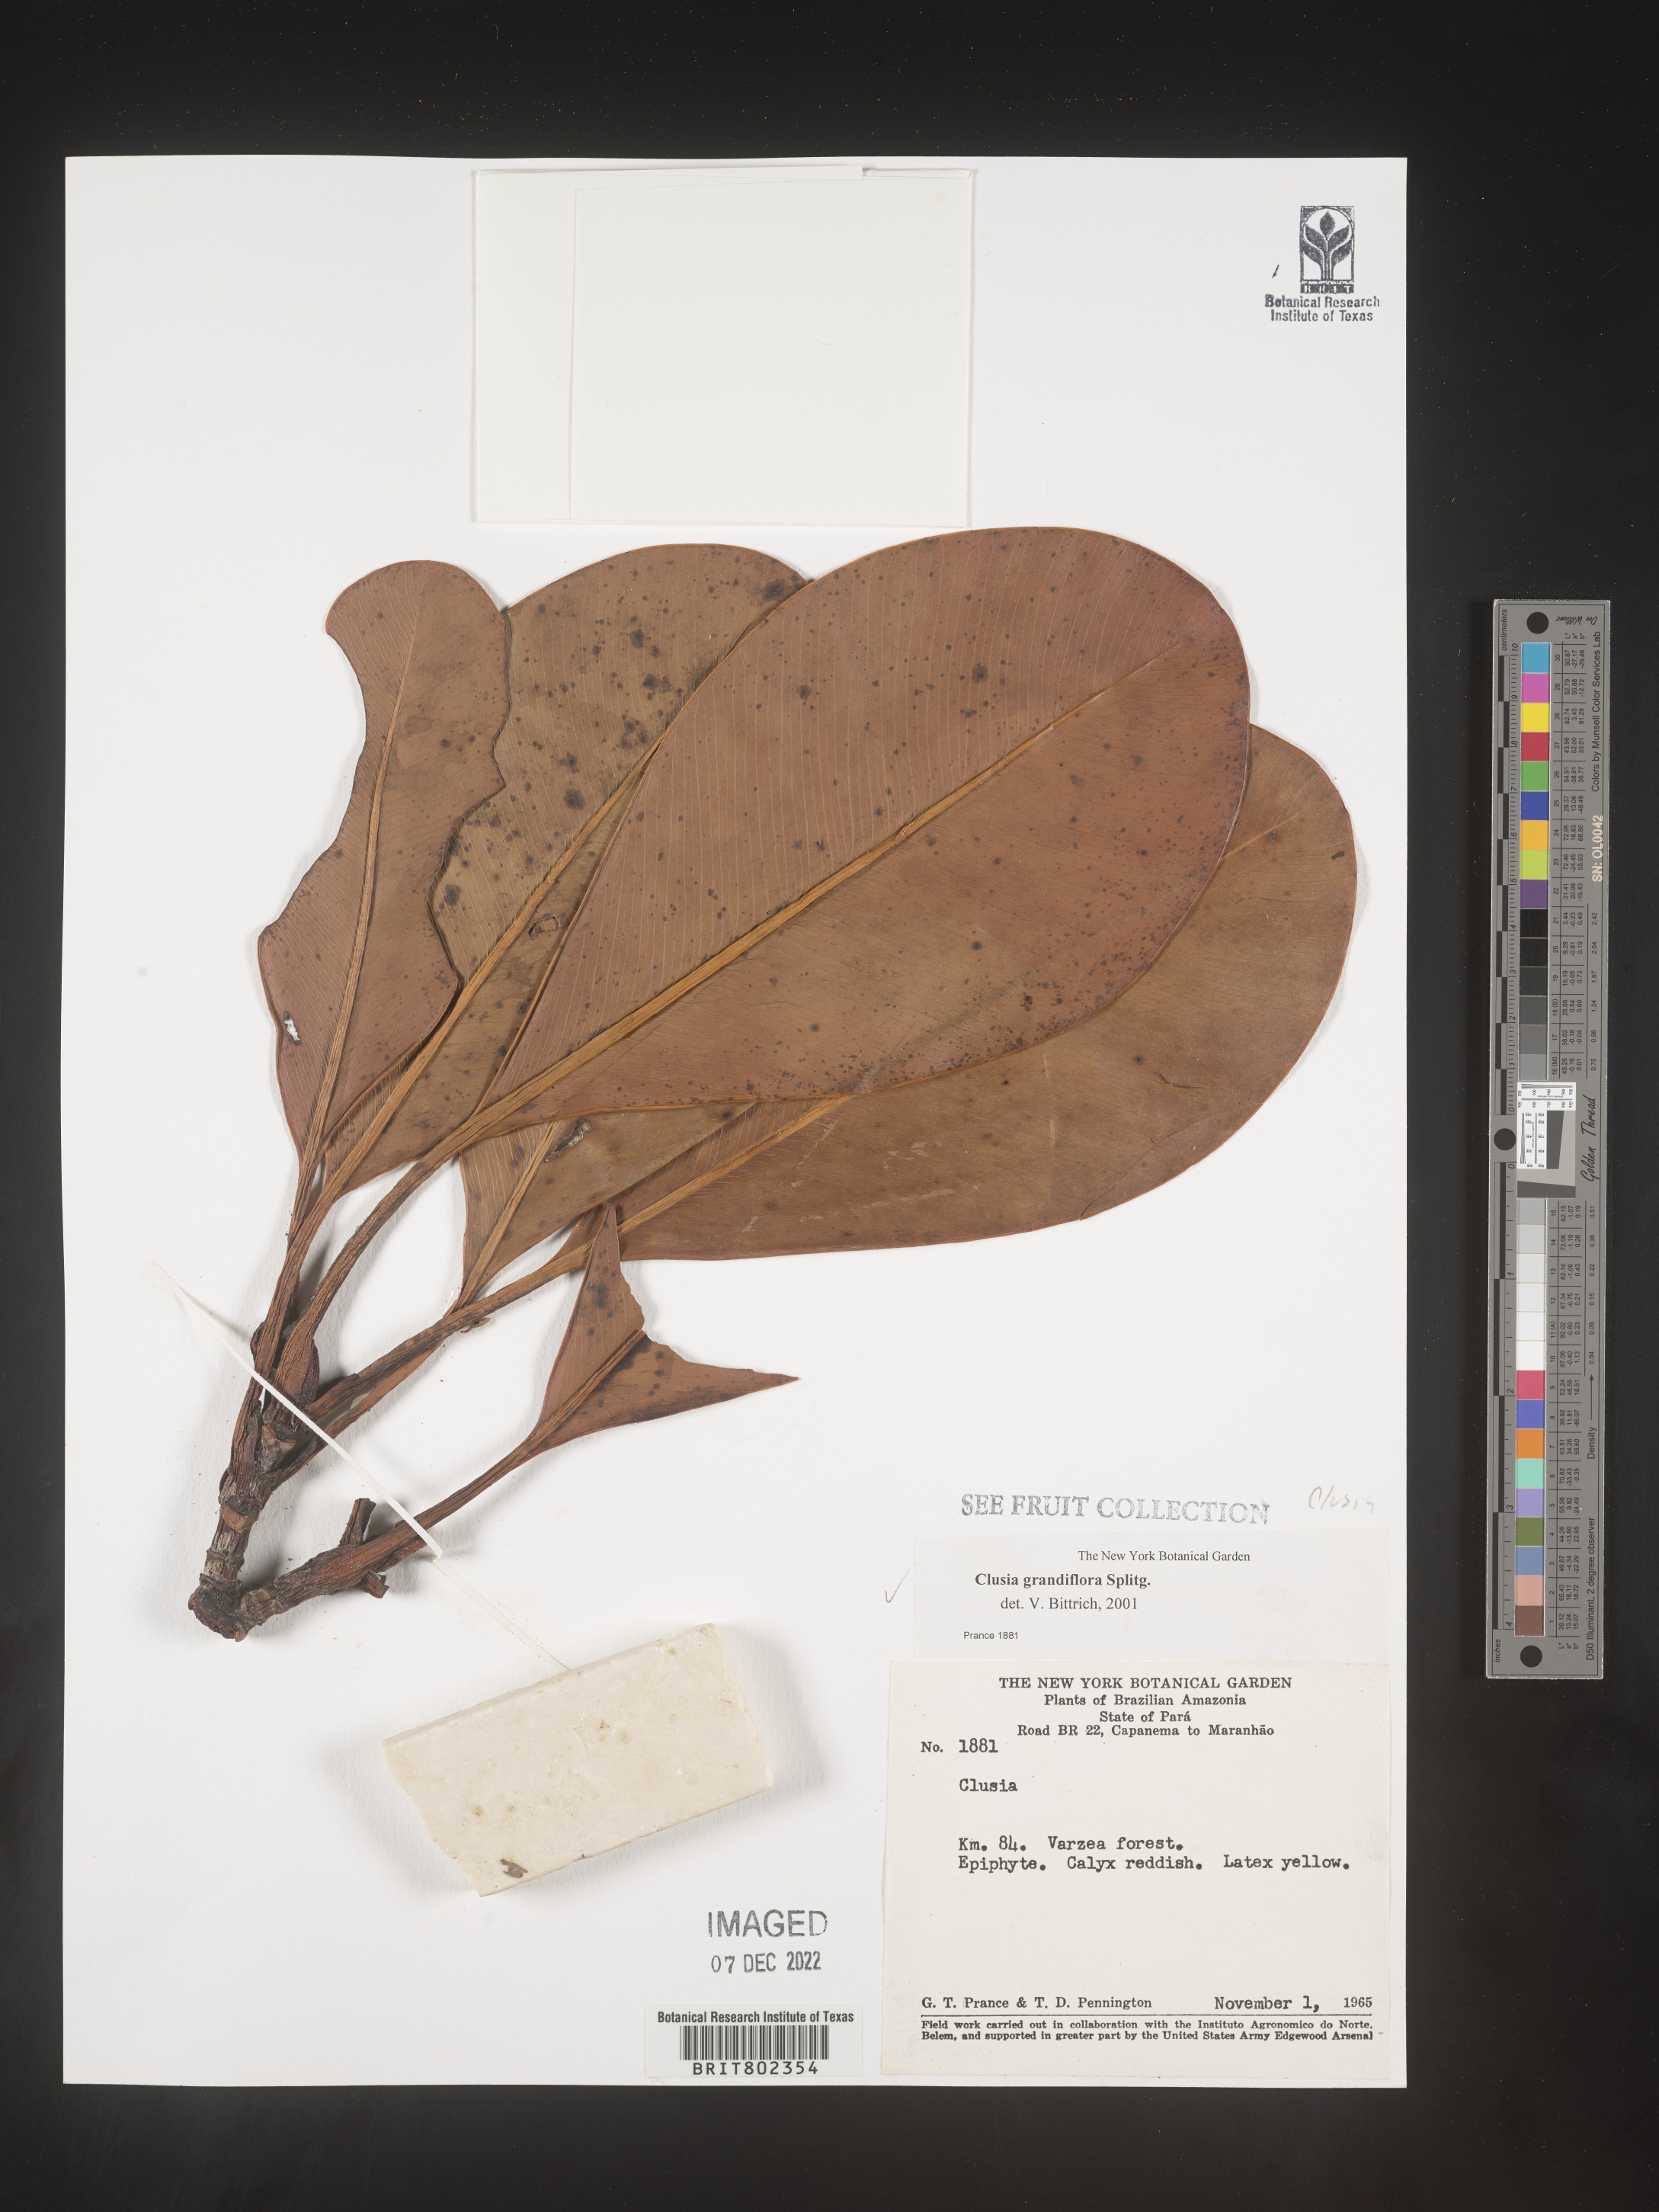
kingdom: Plantae
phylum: Tracheophyta
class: Magnoliopsida
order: Malpighiales
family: Clusiaceae
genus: Clusia
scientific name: Clusia grandiflora
